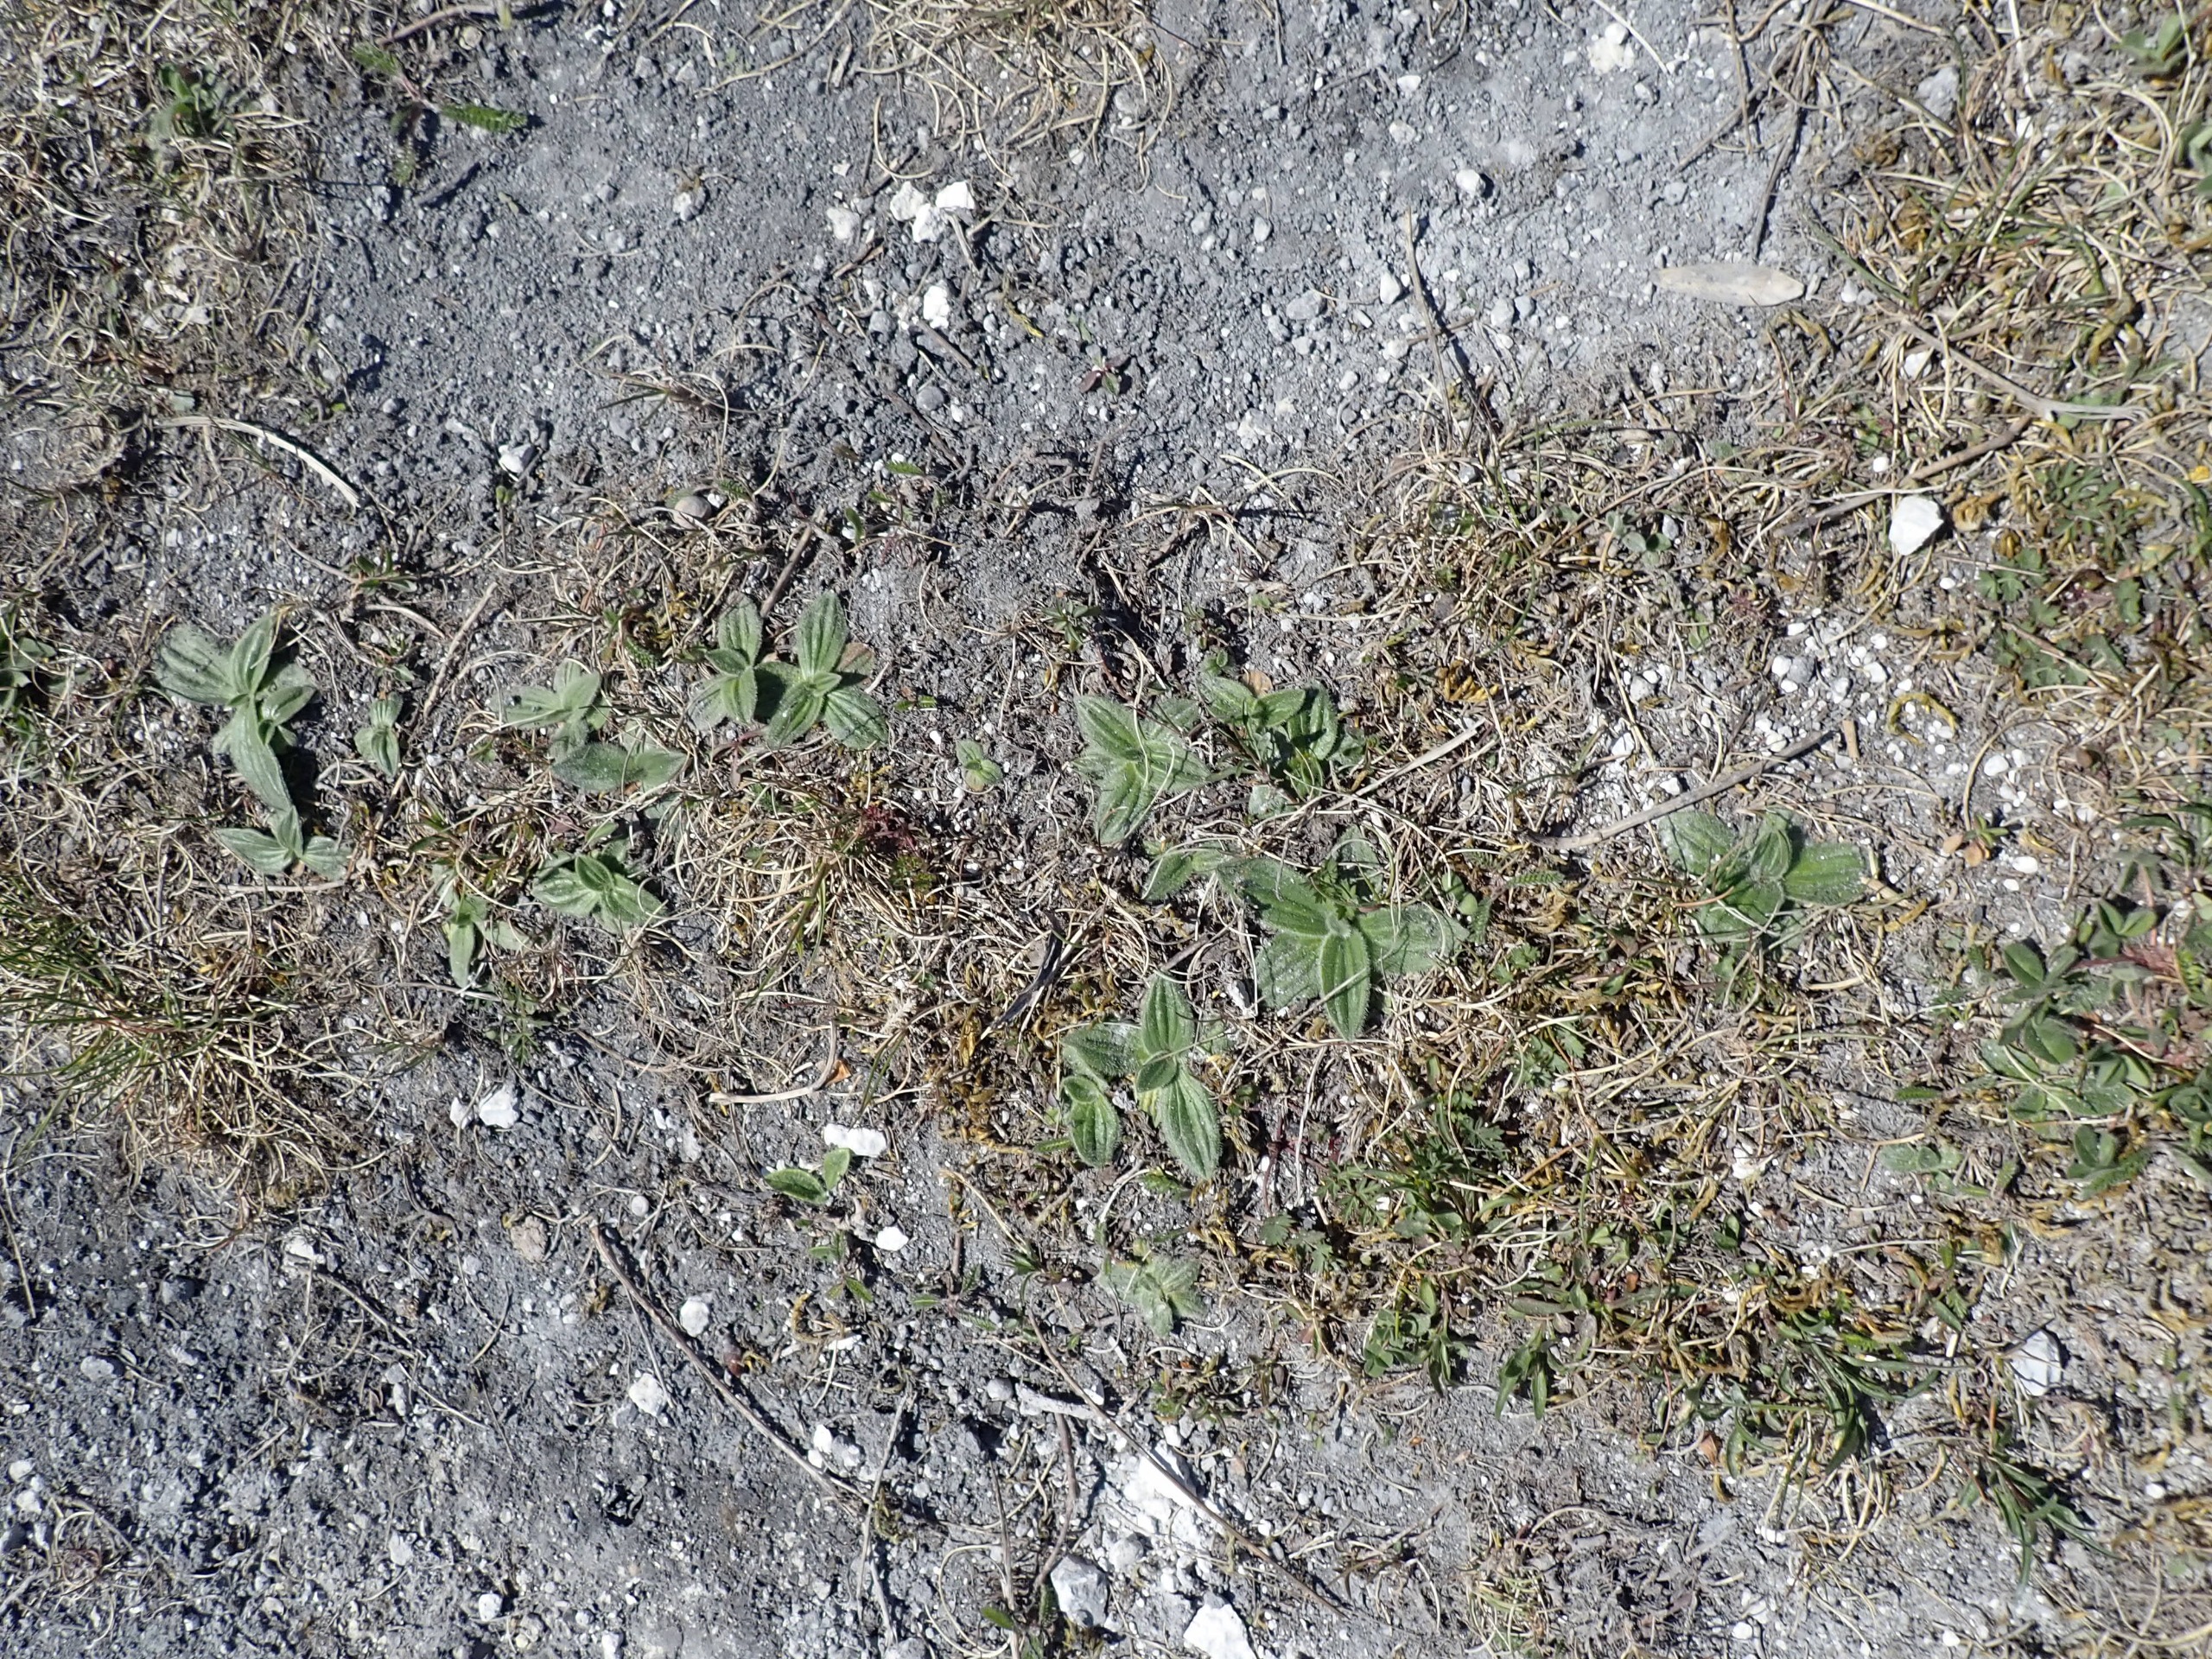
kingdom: Plantae
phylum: Tracheophyta
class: Magnoliopsida
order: Lamiales
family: Plantaginaceae
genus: Plantago
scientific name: Plantago media
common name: Dunet vejbred
